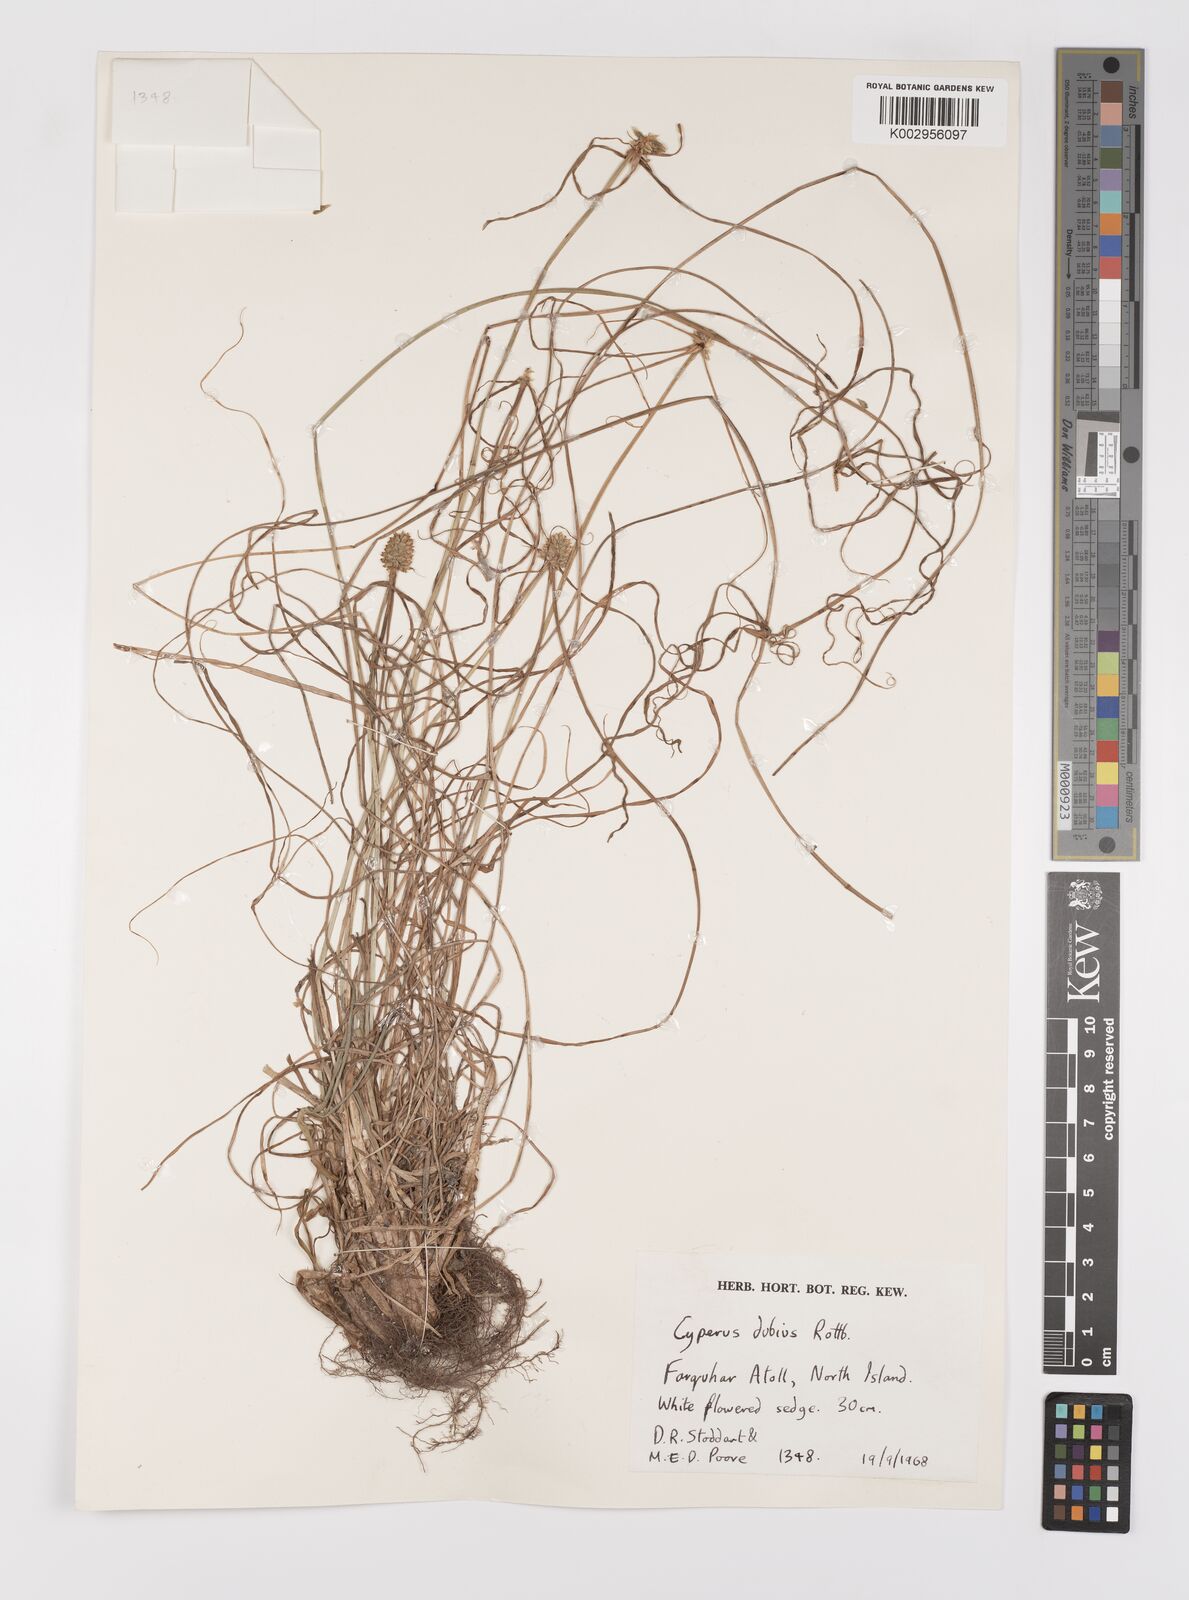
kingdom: Plantae
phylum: Tracheophyta
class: Liliopsida
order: Poales
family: Cyperaceae
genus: Cyperus
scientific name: Cyperus dubius
